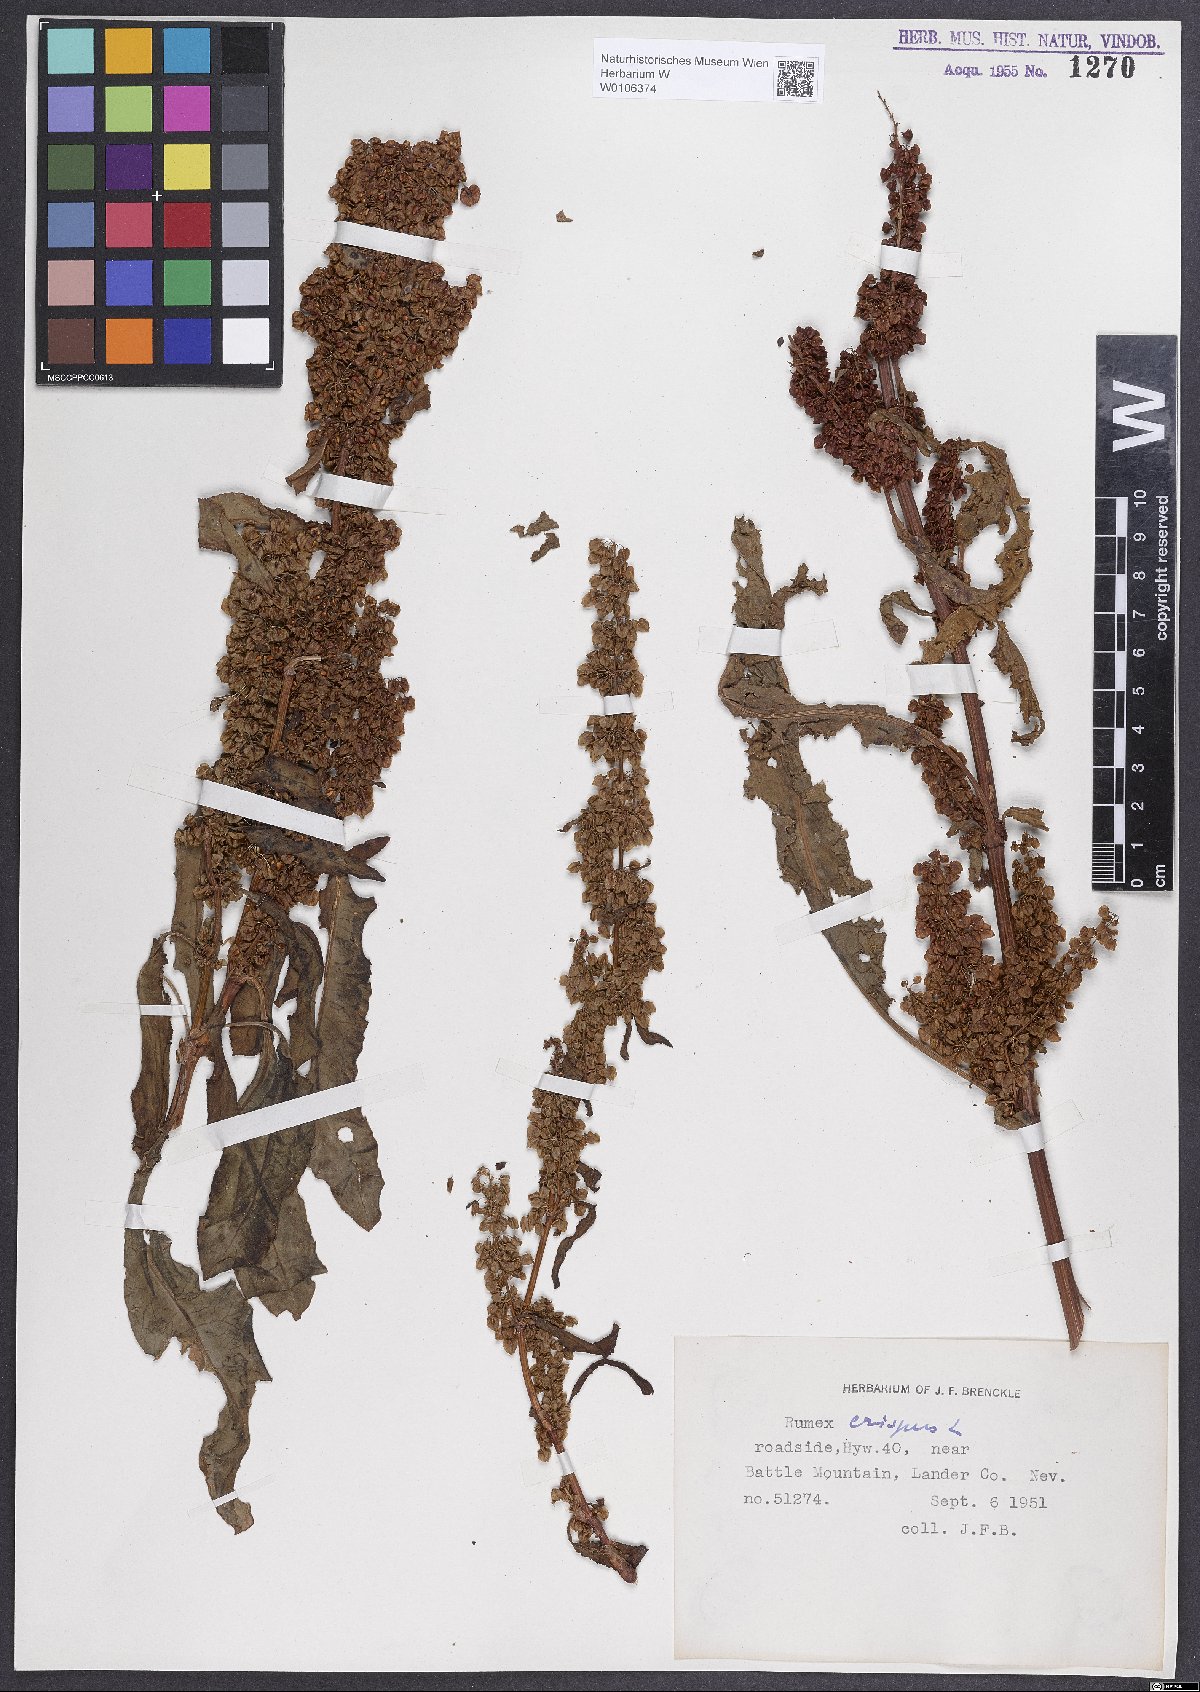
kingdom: Plantae
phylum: Tracheophyta
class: Magnoliopsida
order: Caryophyllales
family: Polygonaceae
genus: Rumex
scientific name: Rumex crispus
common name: Curled dock
